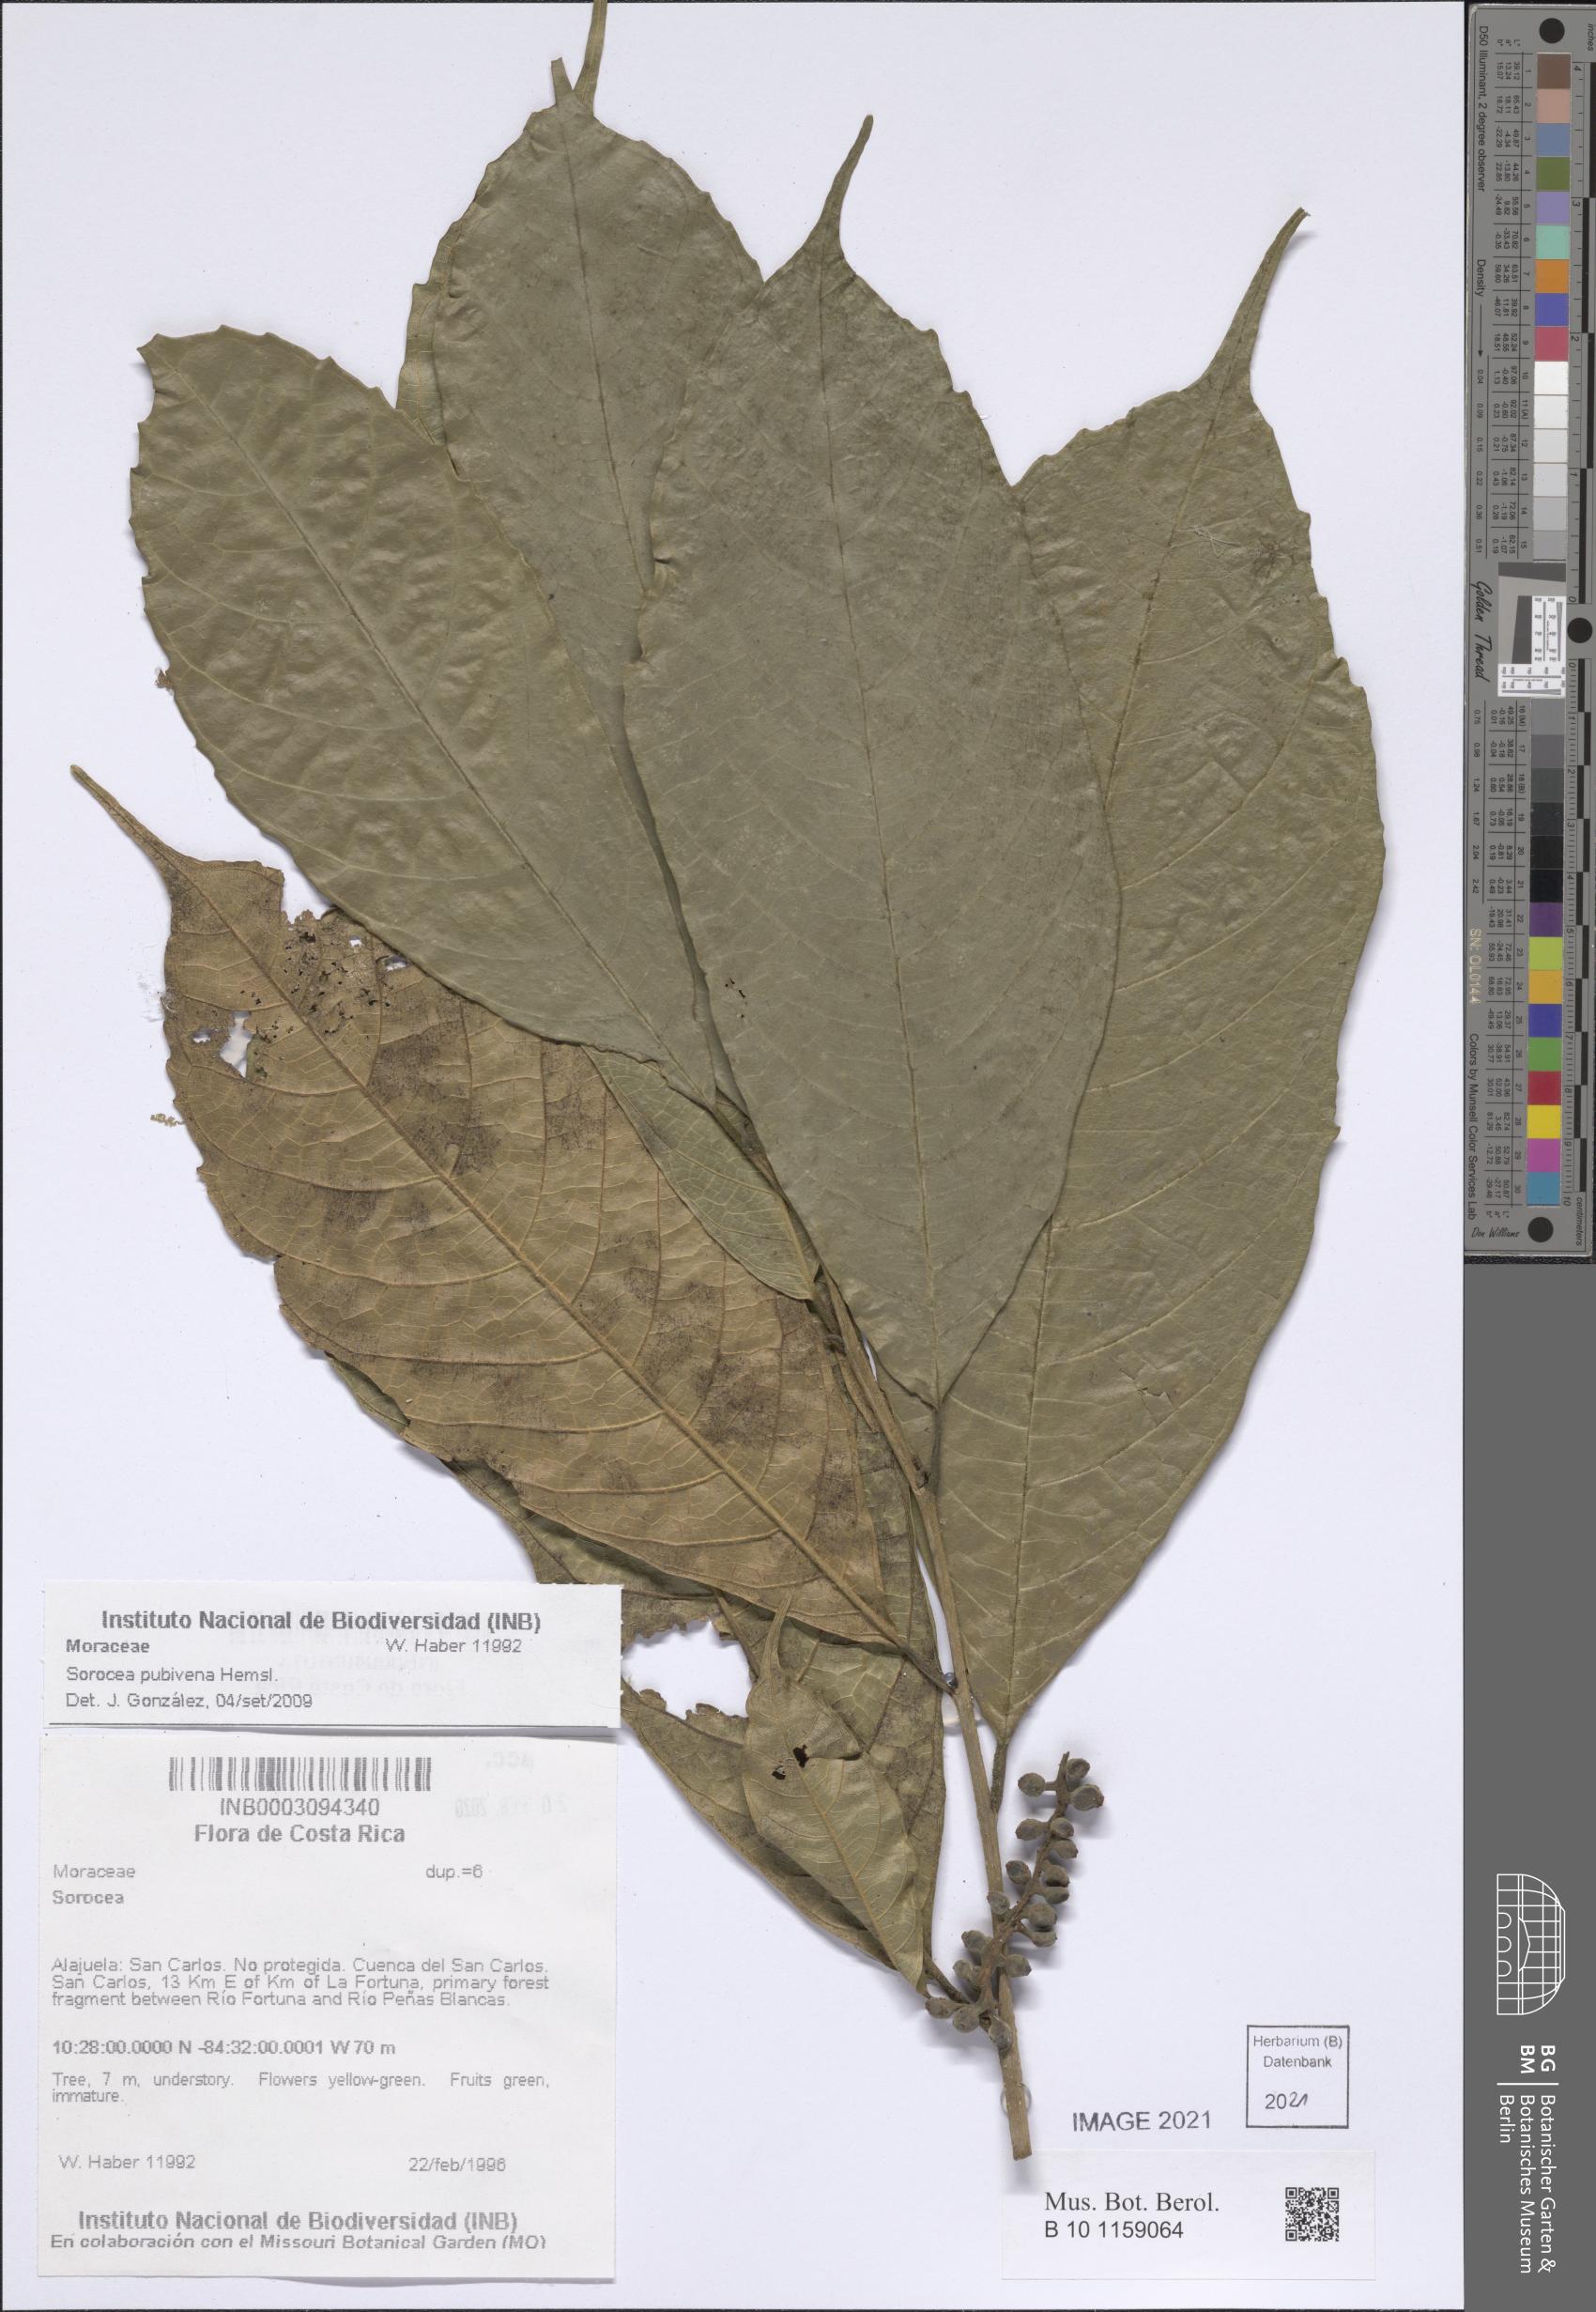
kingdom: Plantae
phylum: Tracheophyta
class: Magnoliopsida
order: Rosales
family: Moraceae
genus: Sorocea
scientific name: Sorocea pubivena
